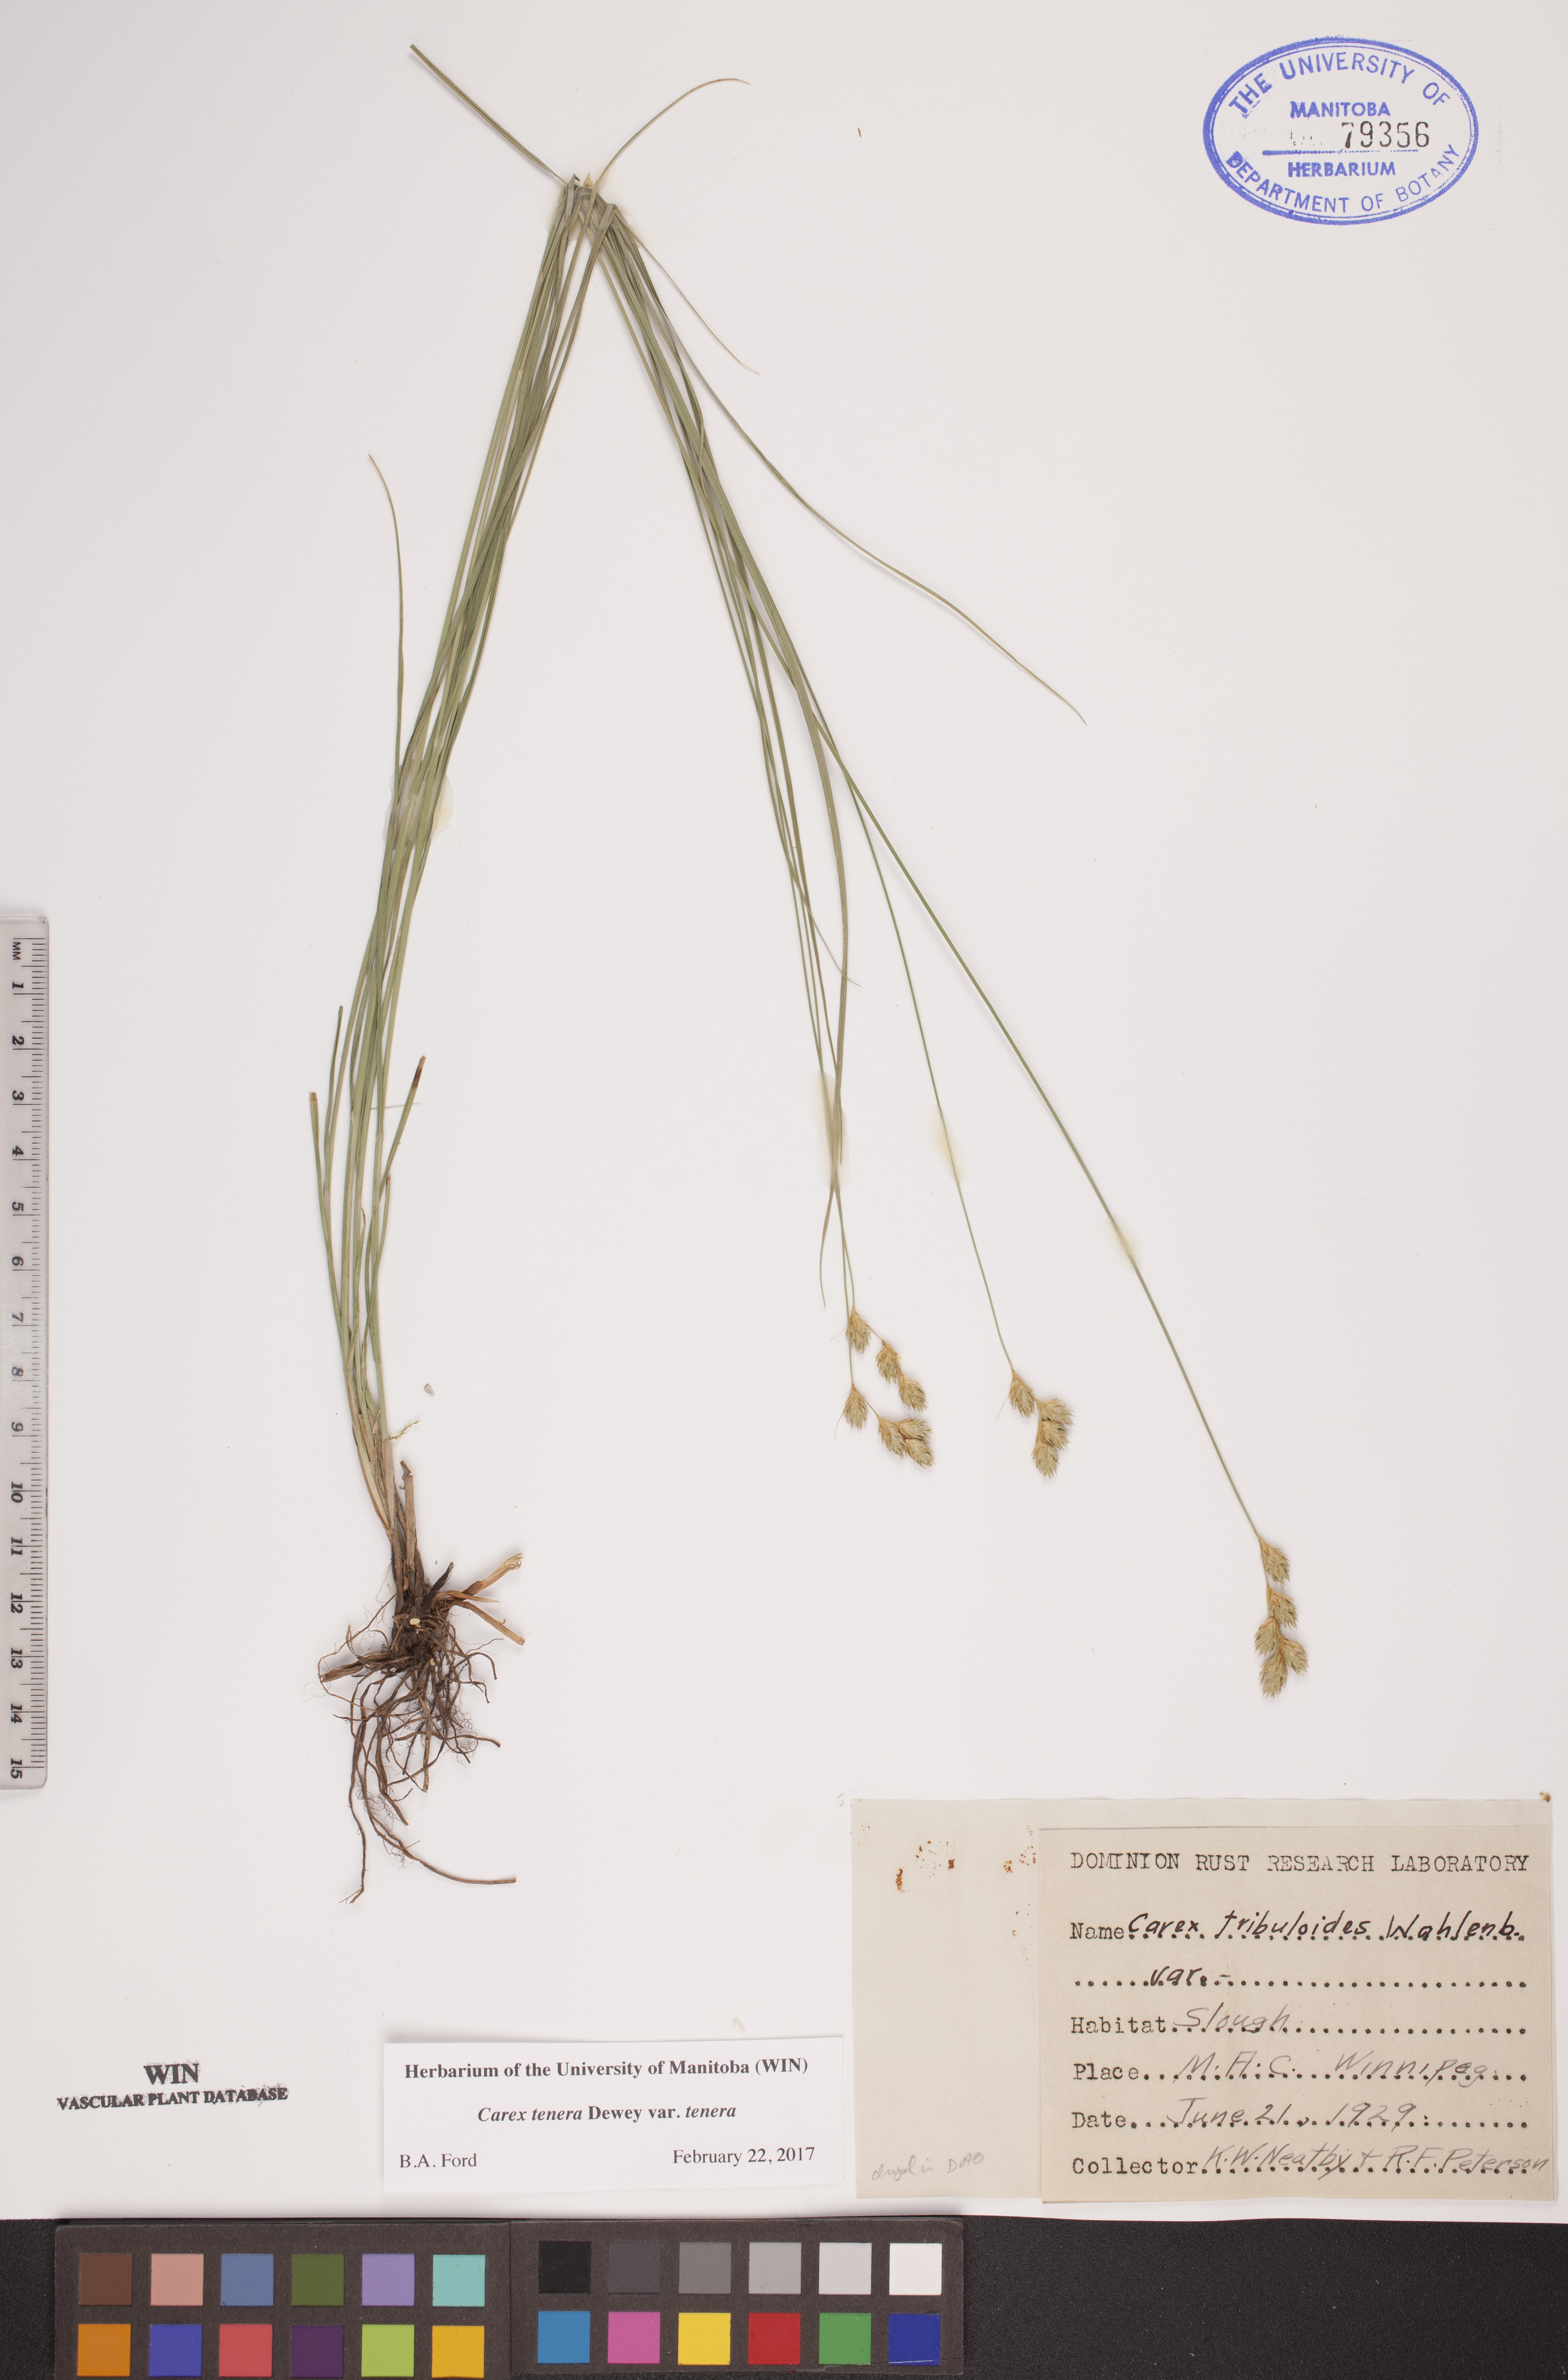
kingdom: Plantae
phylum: Tracheophyta
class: Liliopsida
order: Poales
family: Cyperaceae
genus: Carex
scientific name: Carex tenera
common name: Broad-fruited sedge
